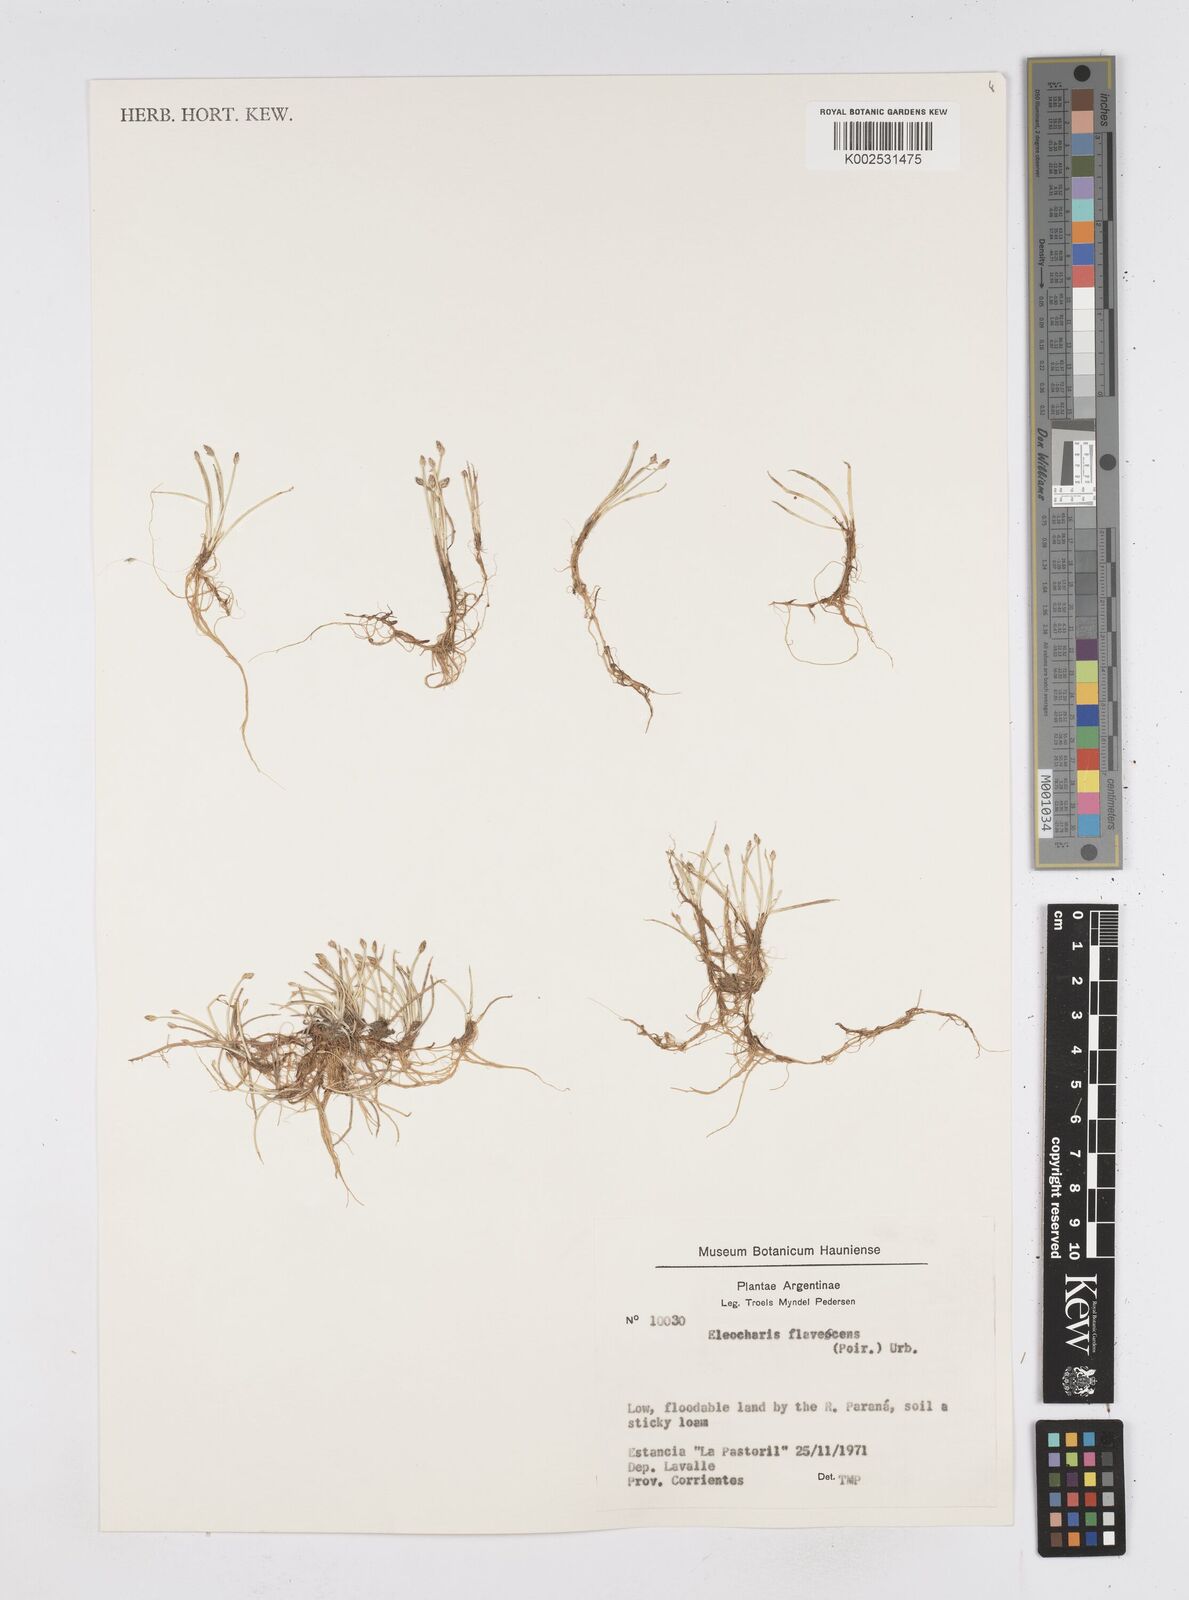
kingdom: Plantae
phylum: Tracheophyta
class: Liliopsida
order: Poales
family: Cyperaceae
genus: Eleocharis
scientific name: Eleocharis flavescens
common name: Yellow spikerush
